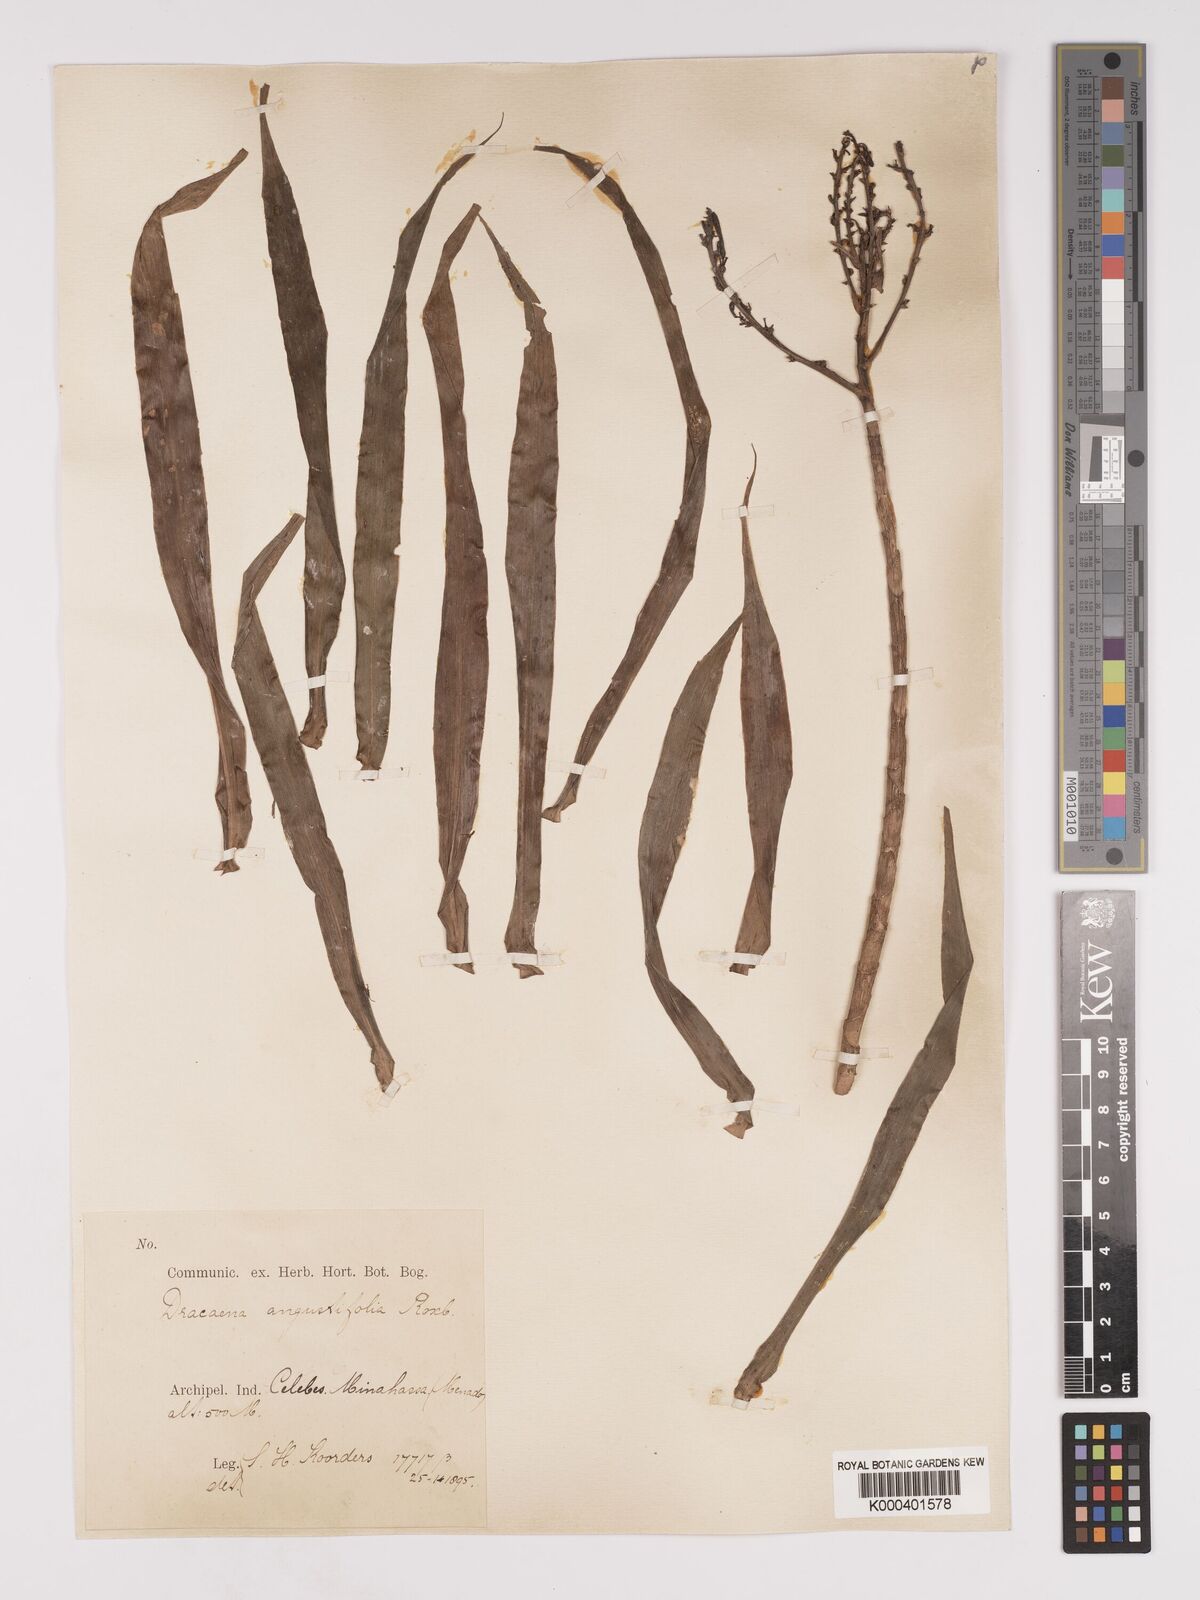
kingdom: Plantae
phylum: Tracheophyta
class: Liliopsida
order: Asparagales
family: Asparagaceae
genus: Dracaena
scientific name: Dracaena angustifolia
